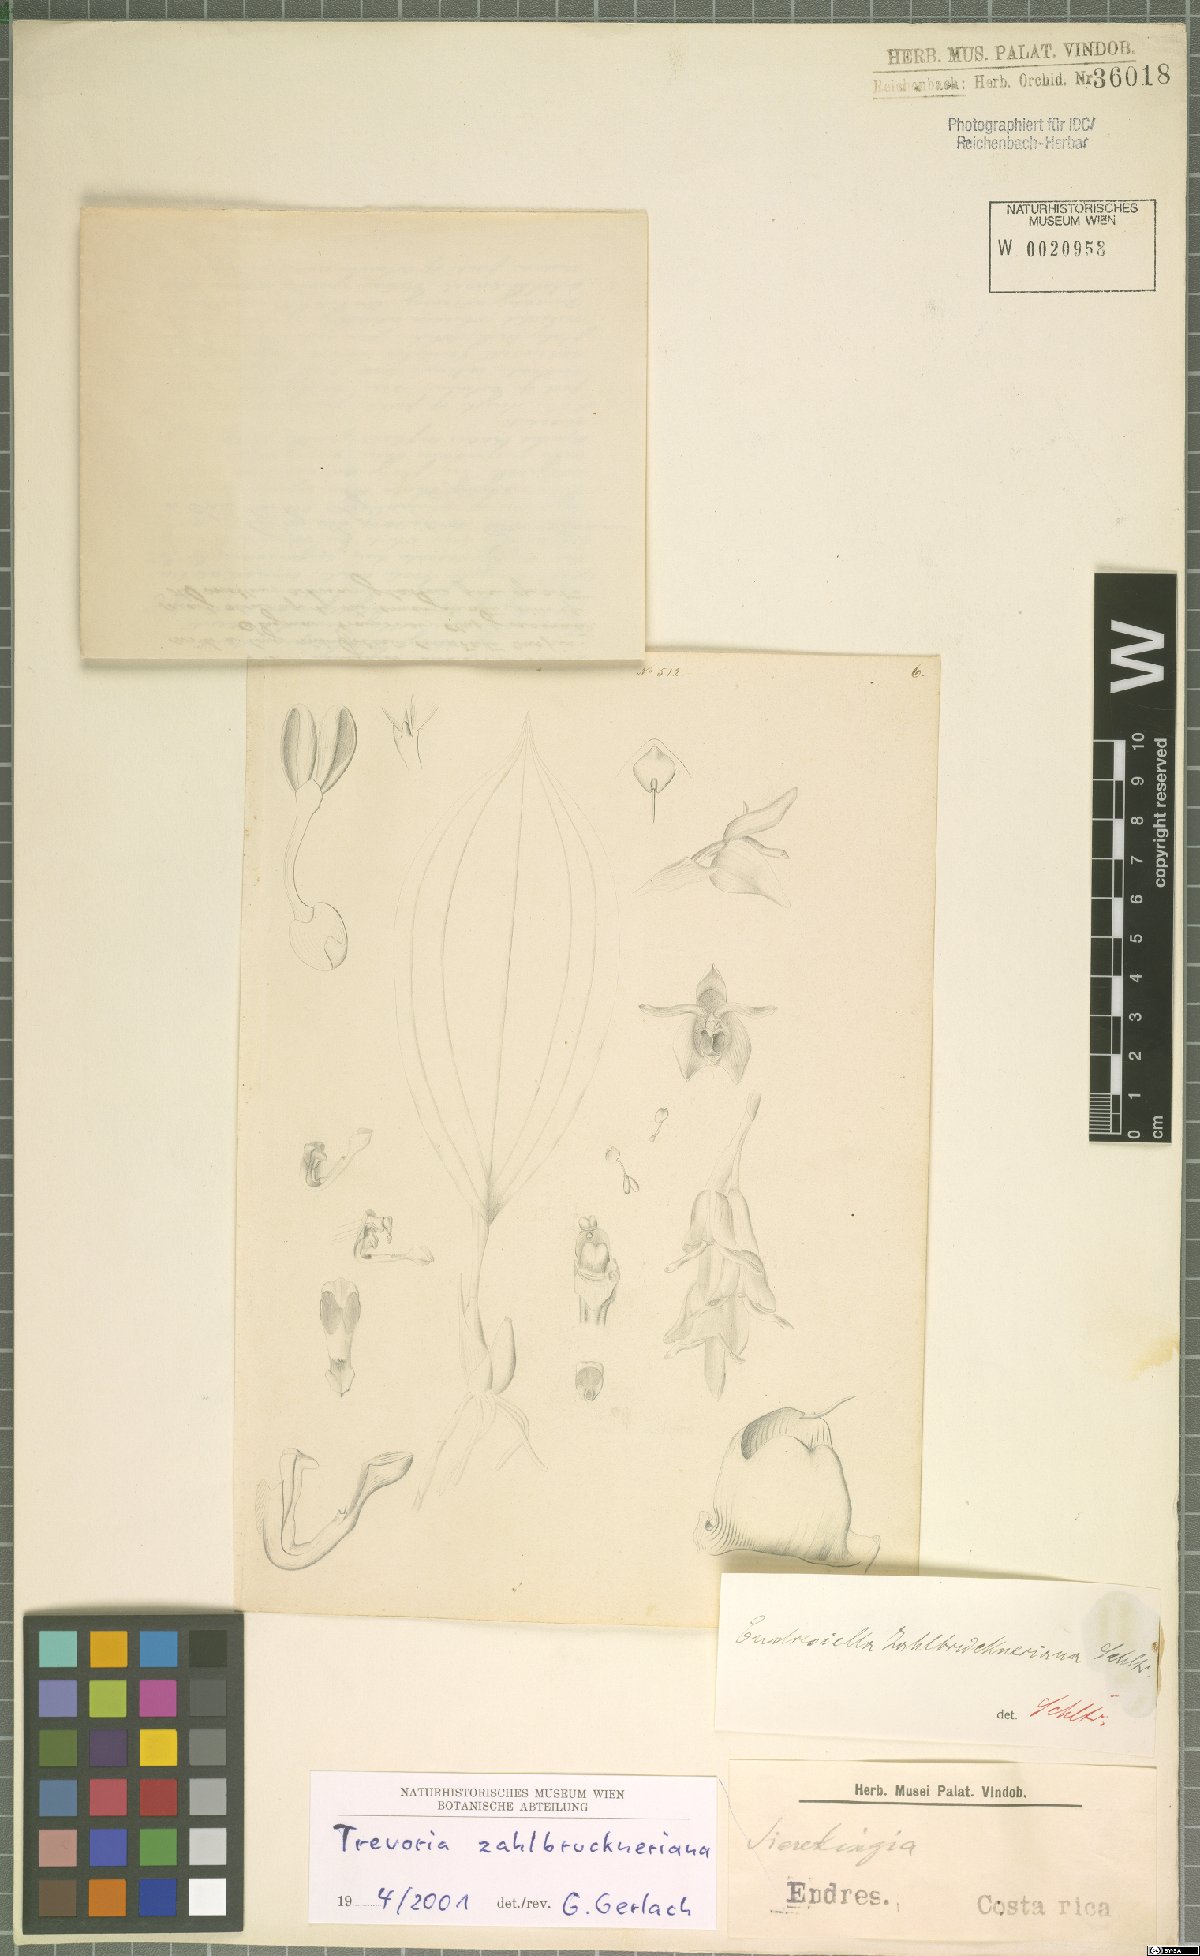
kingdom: Plantae
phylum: Tracheophyta
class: Liliopsida
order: Asparagales
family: Orchidaceae
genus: Trevoria
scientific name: Trevoria zahlbruckneriana
